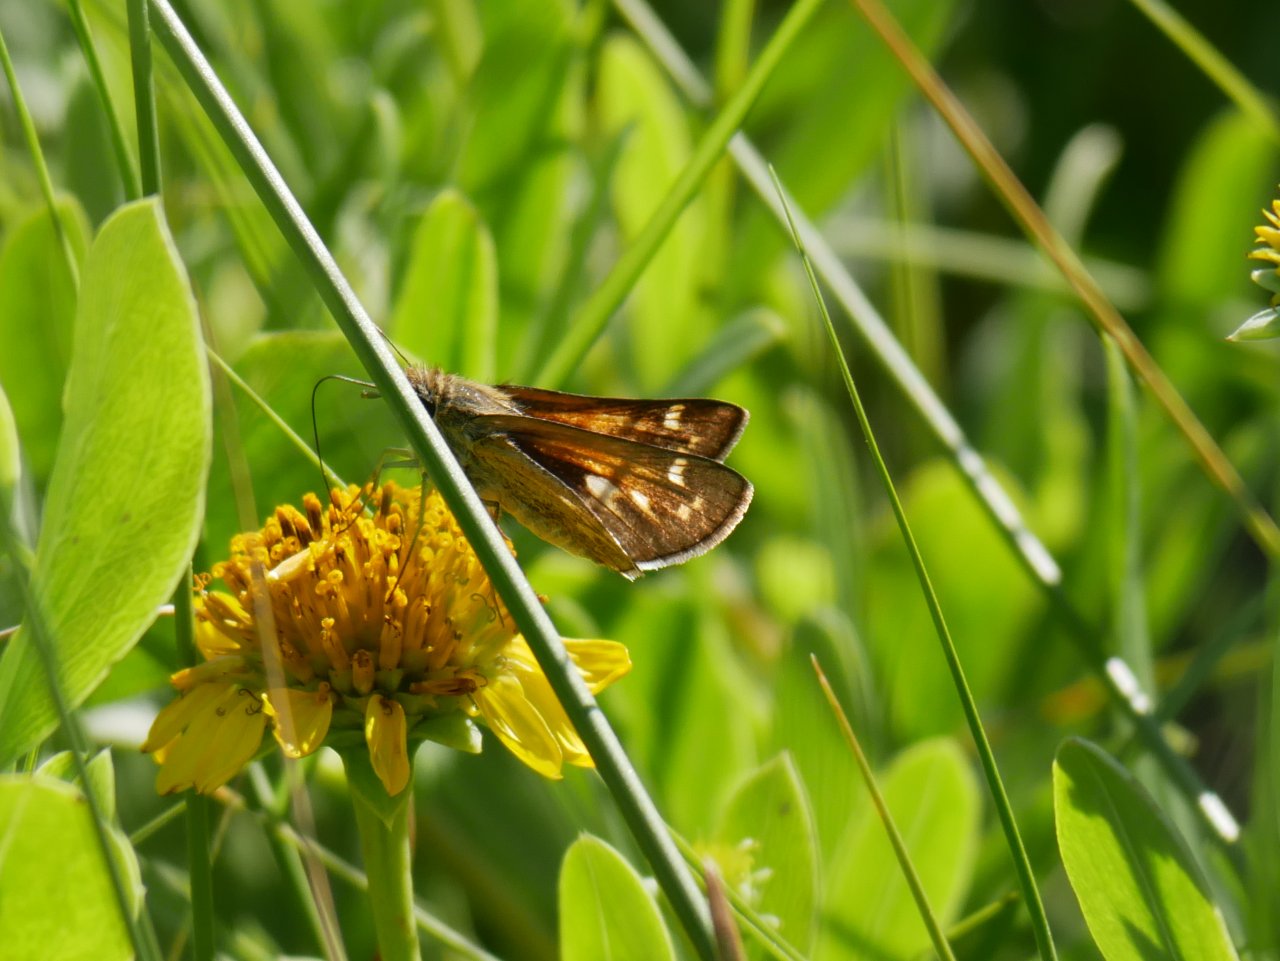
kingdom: Animalia
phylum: Arthropoda
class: Insecta
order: Lepidoptera
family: Hesperiidae
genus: Atalopedes
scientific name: Atalopedes campestris
